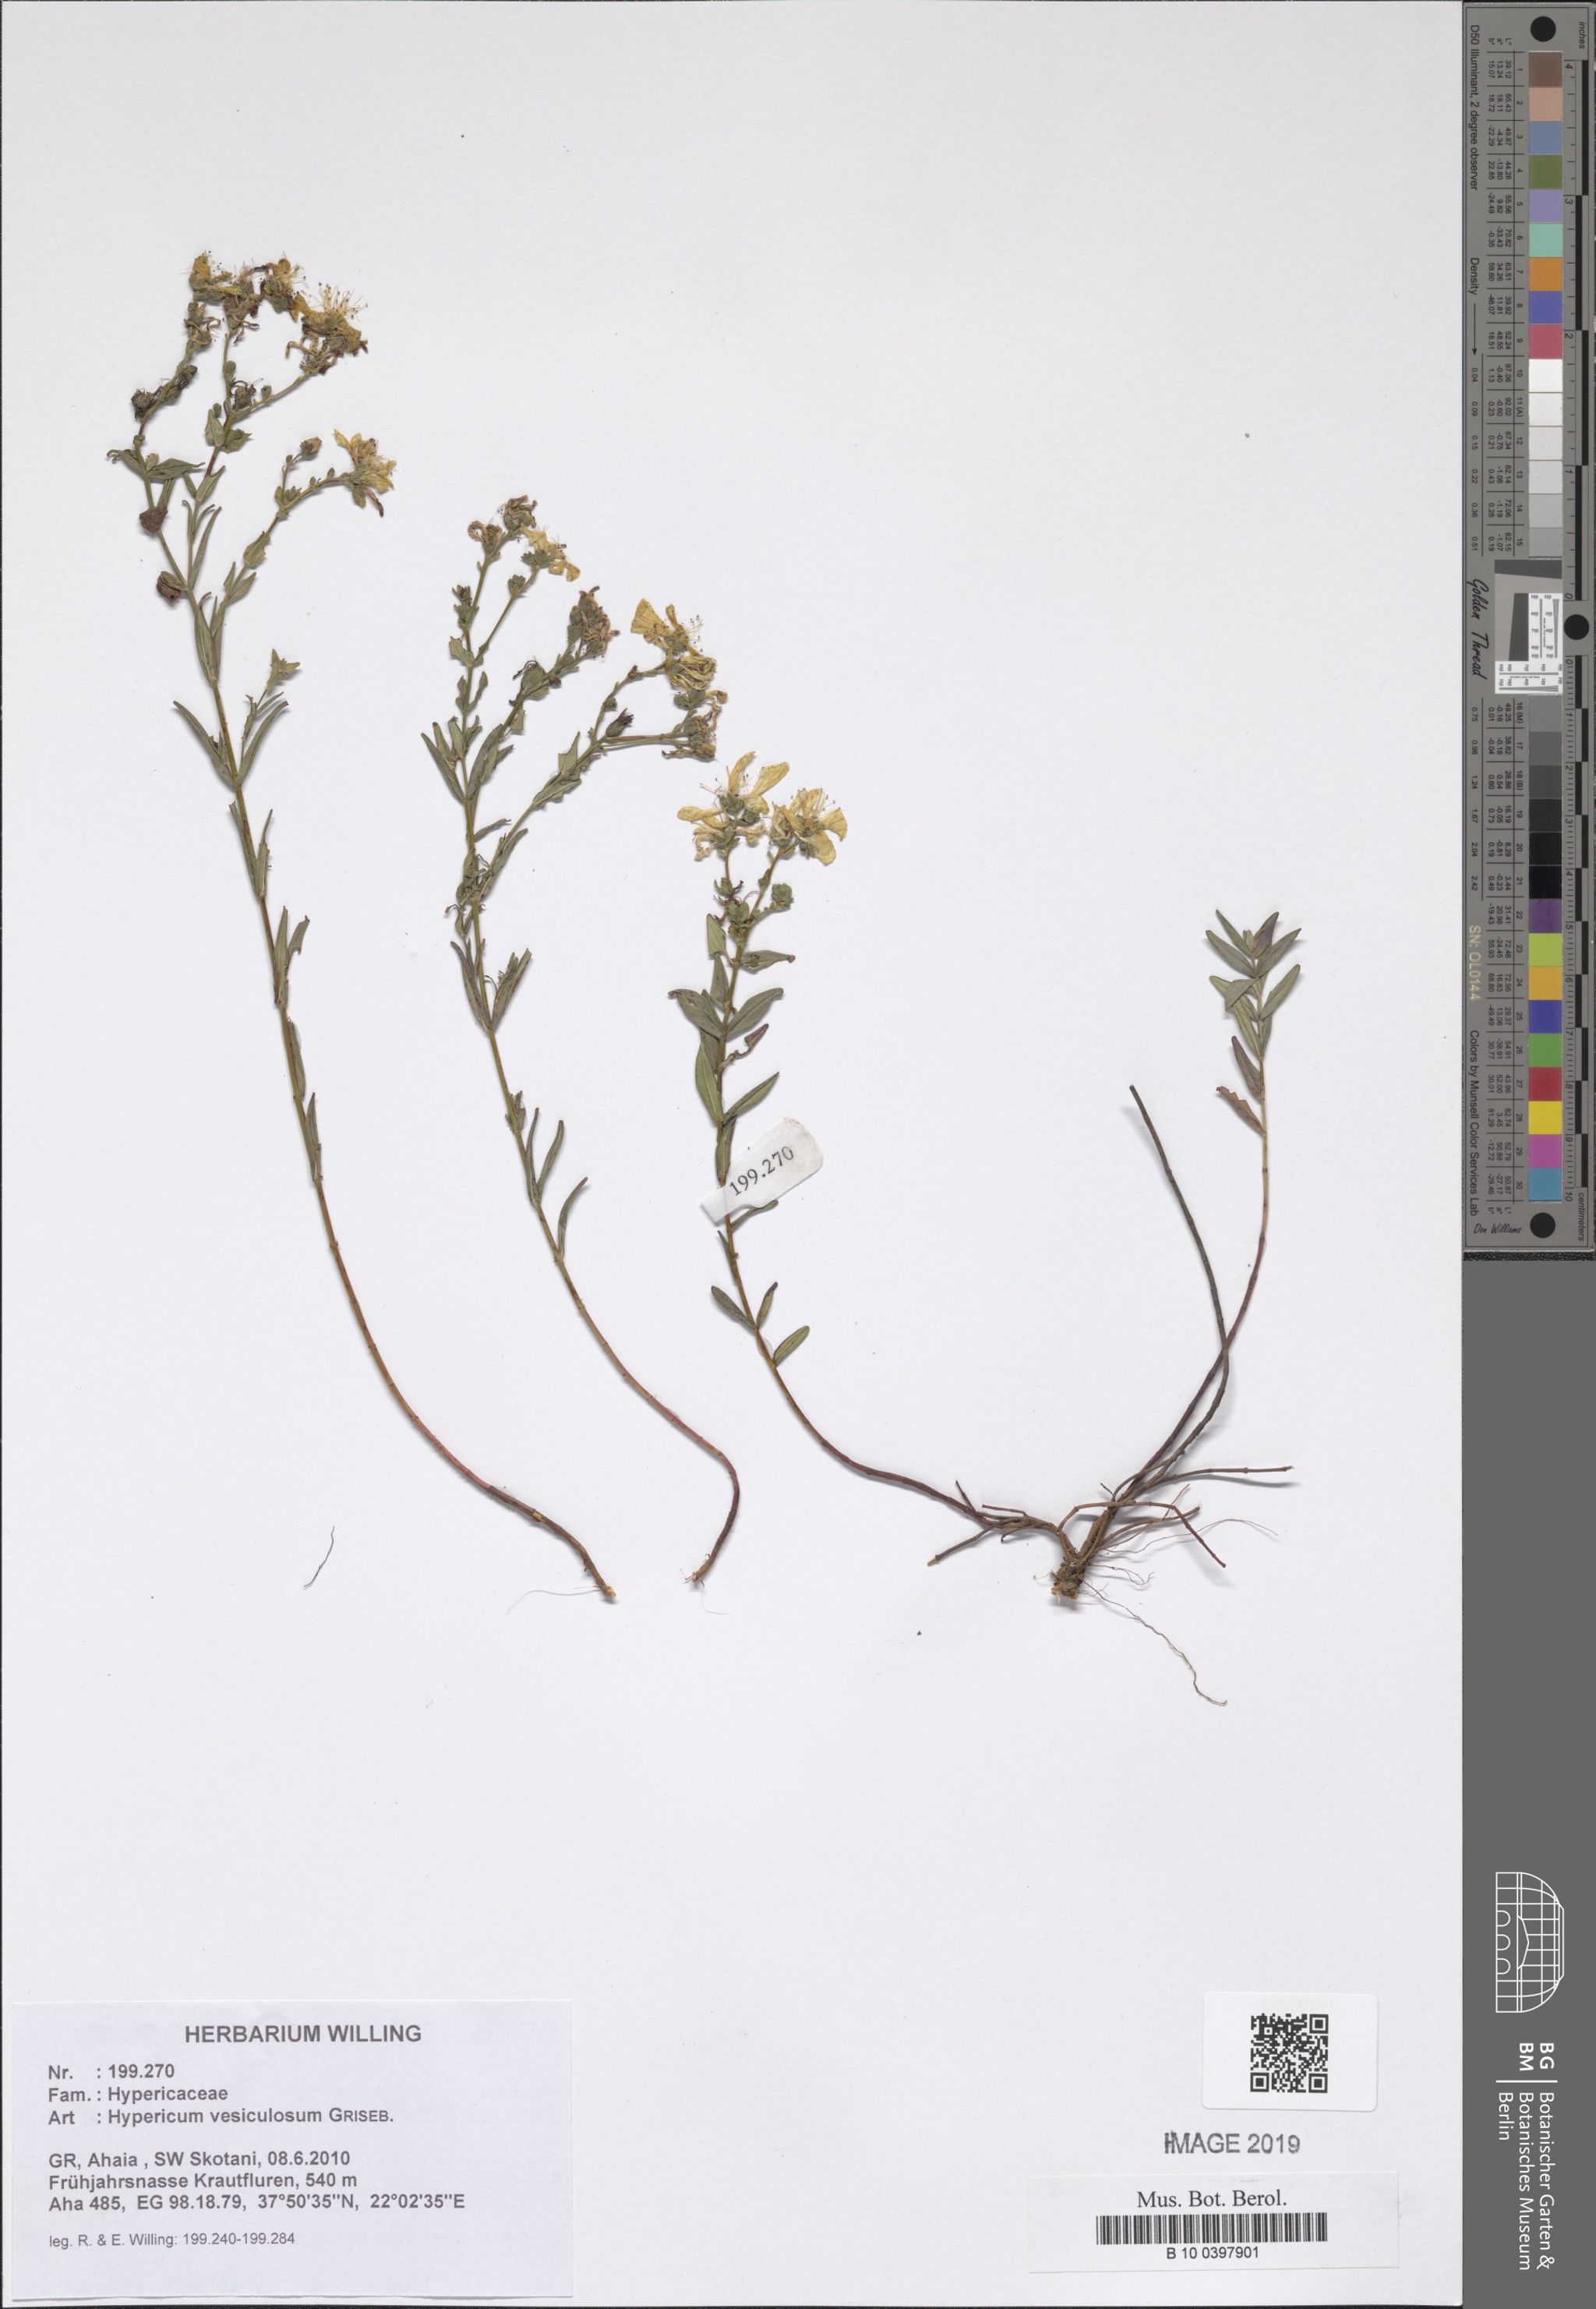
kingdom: Plantae
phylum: Tracheophyta
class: Magnoliopsida
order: Malpighiales
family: Hypericaceae
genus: Hypericum
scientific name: Hypericum vesiculosum
